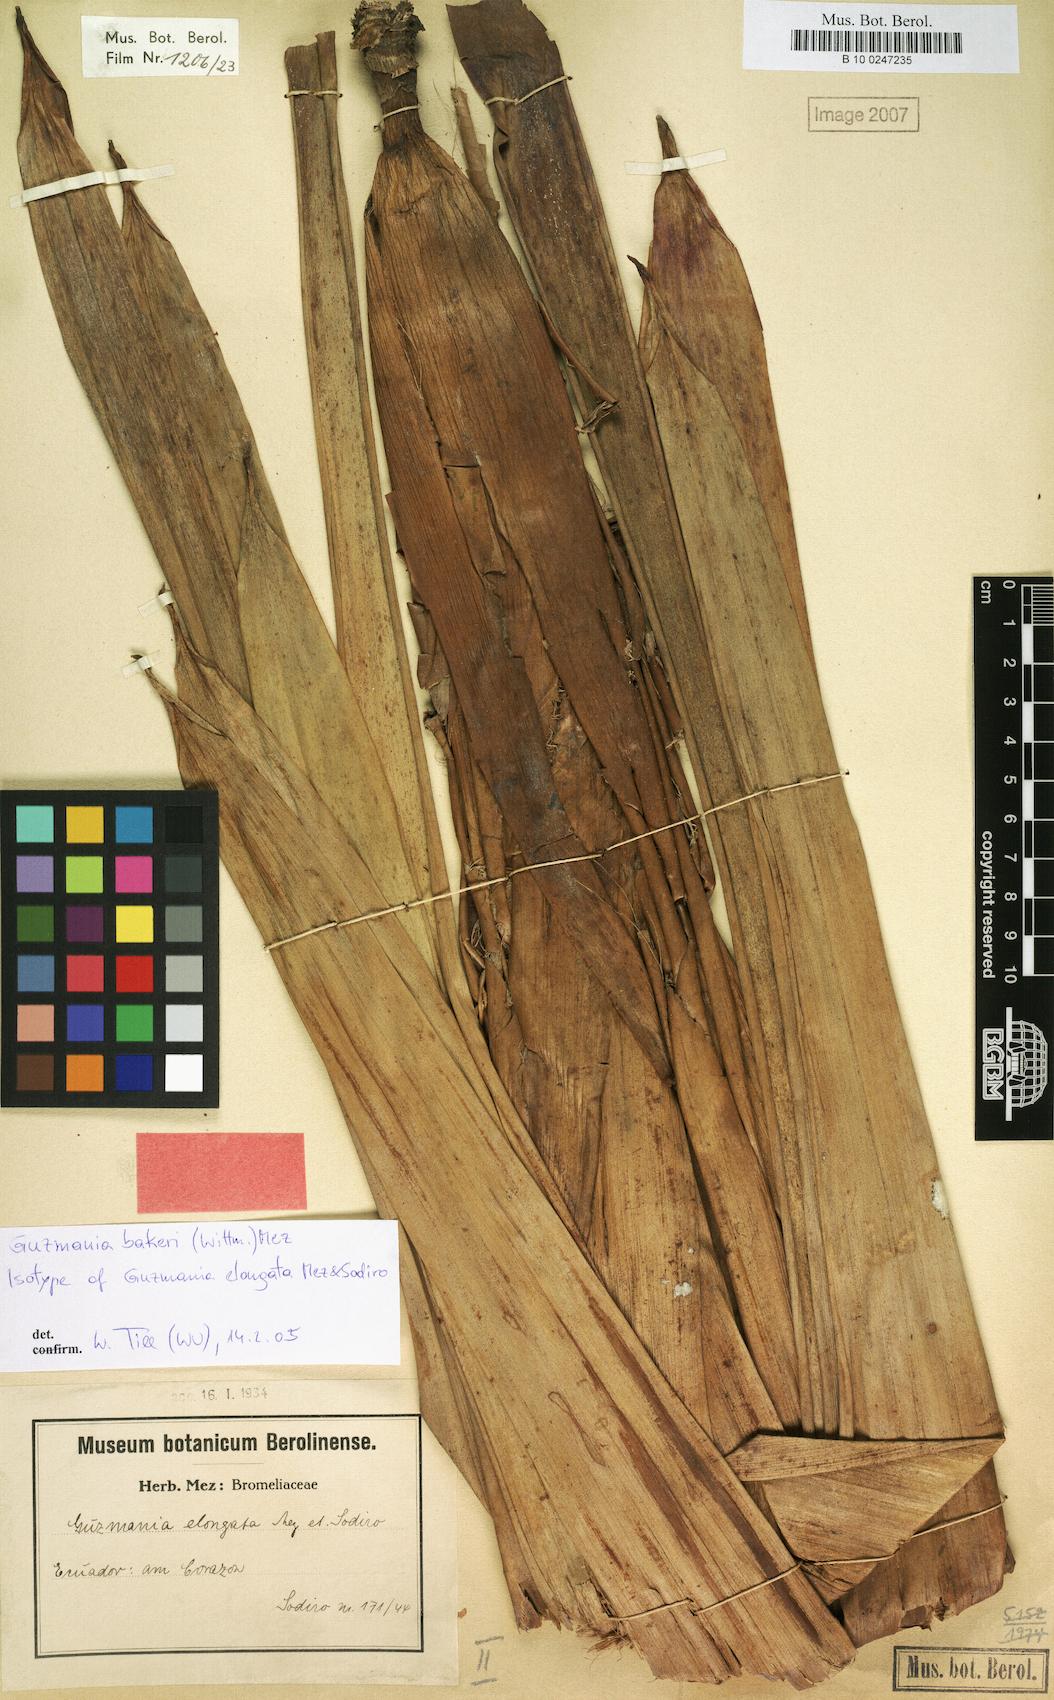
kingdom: Plantae
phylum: Tracheophyta
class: Liliopsida
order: Poales
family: Bromeliaceae
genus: Guzmania
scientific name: Guzmania bakeri
